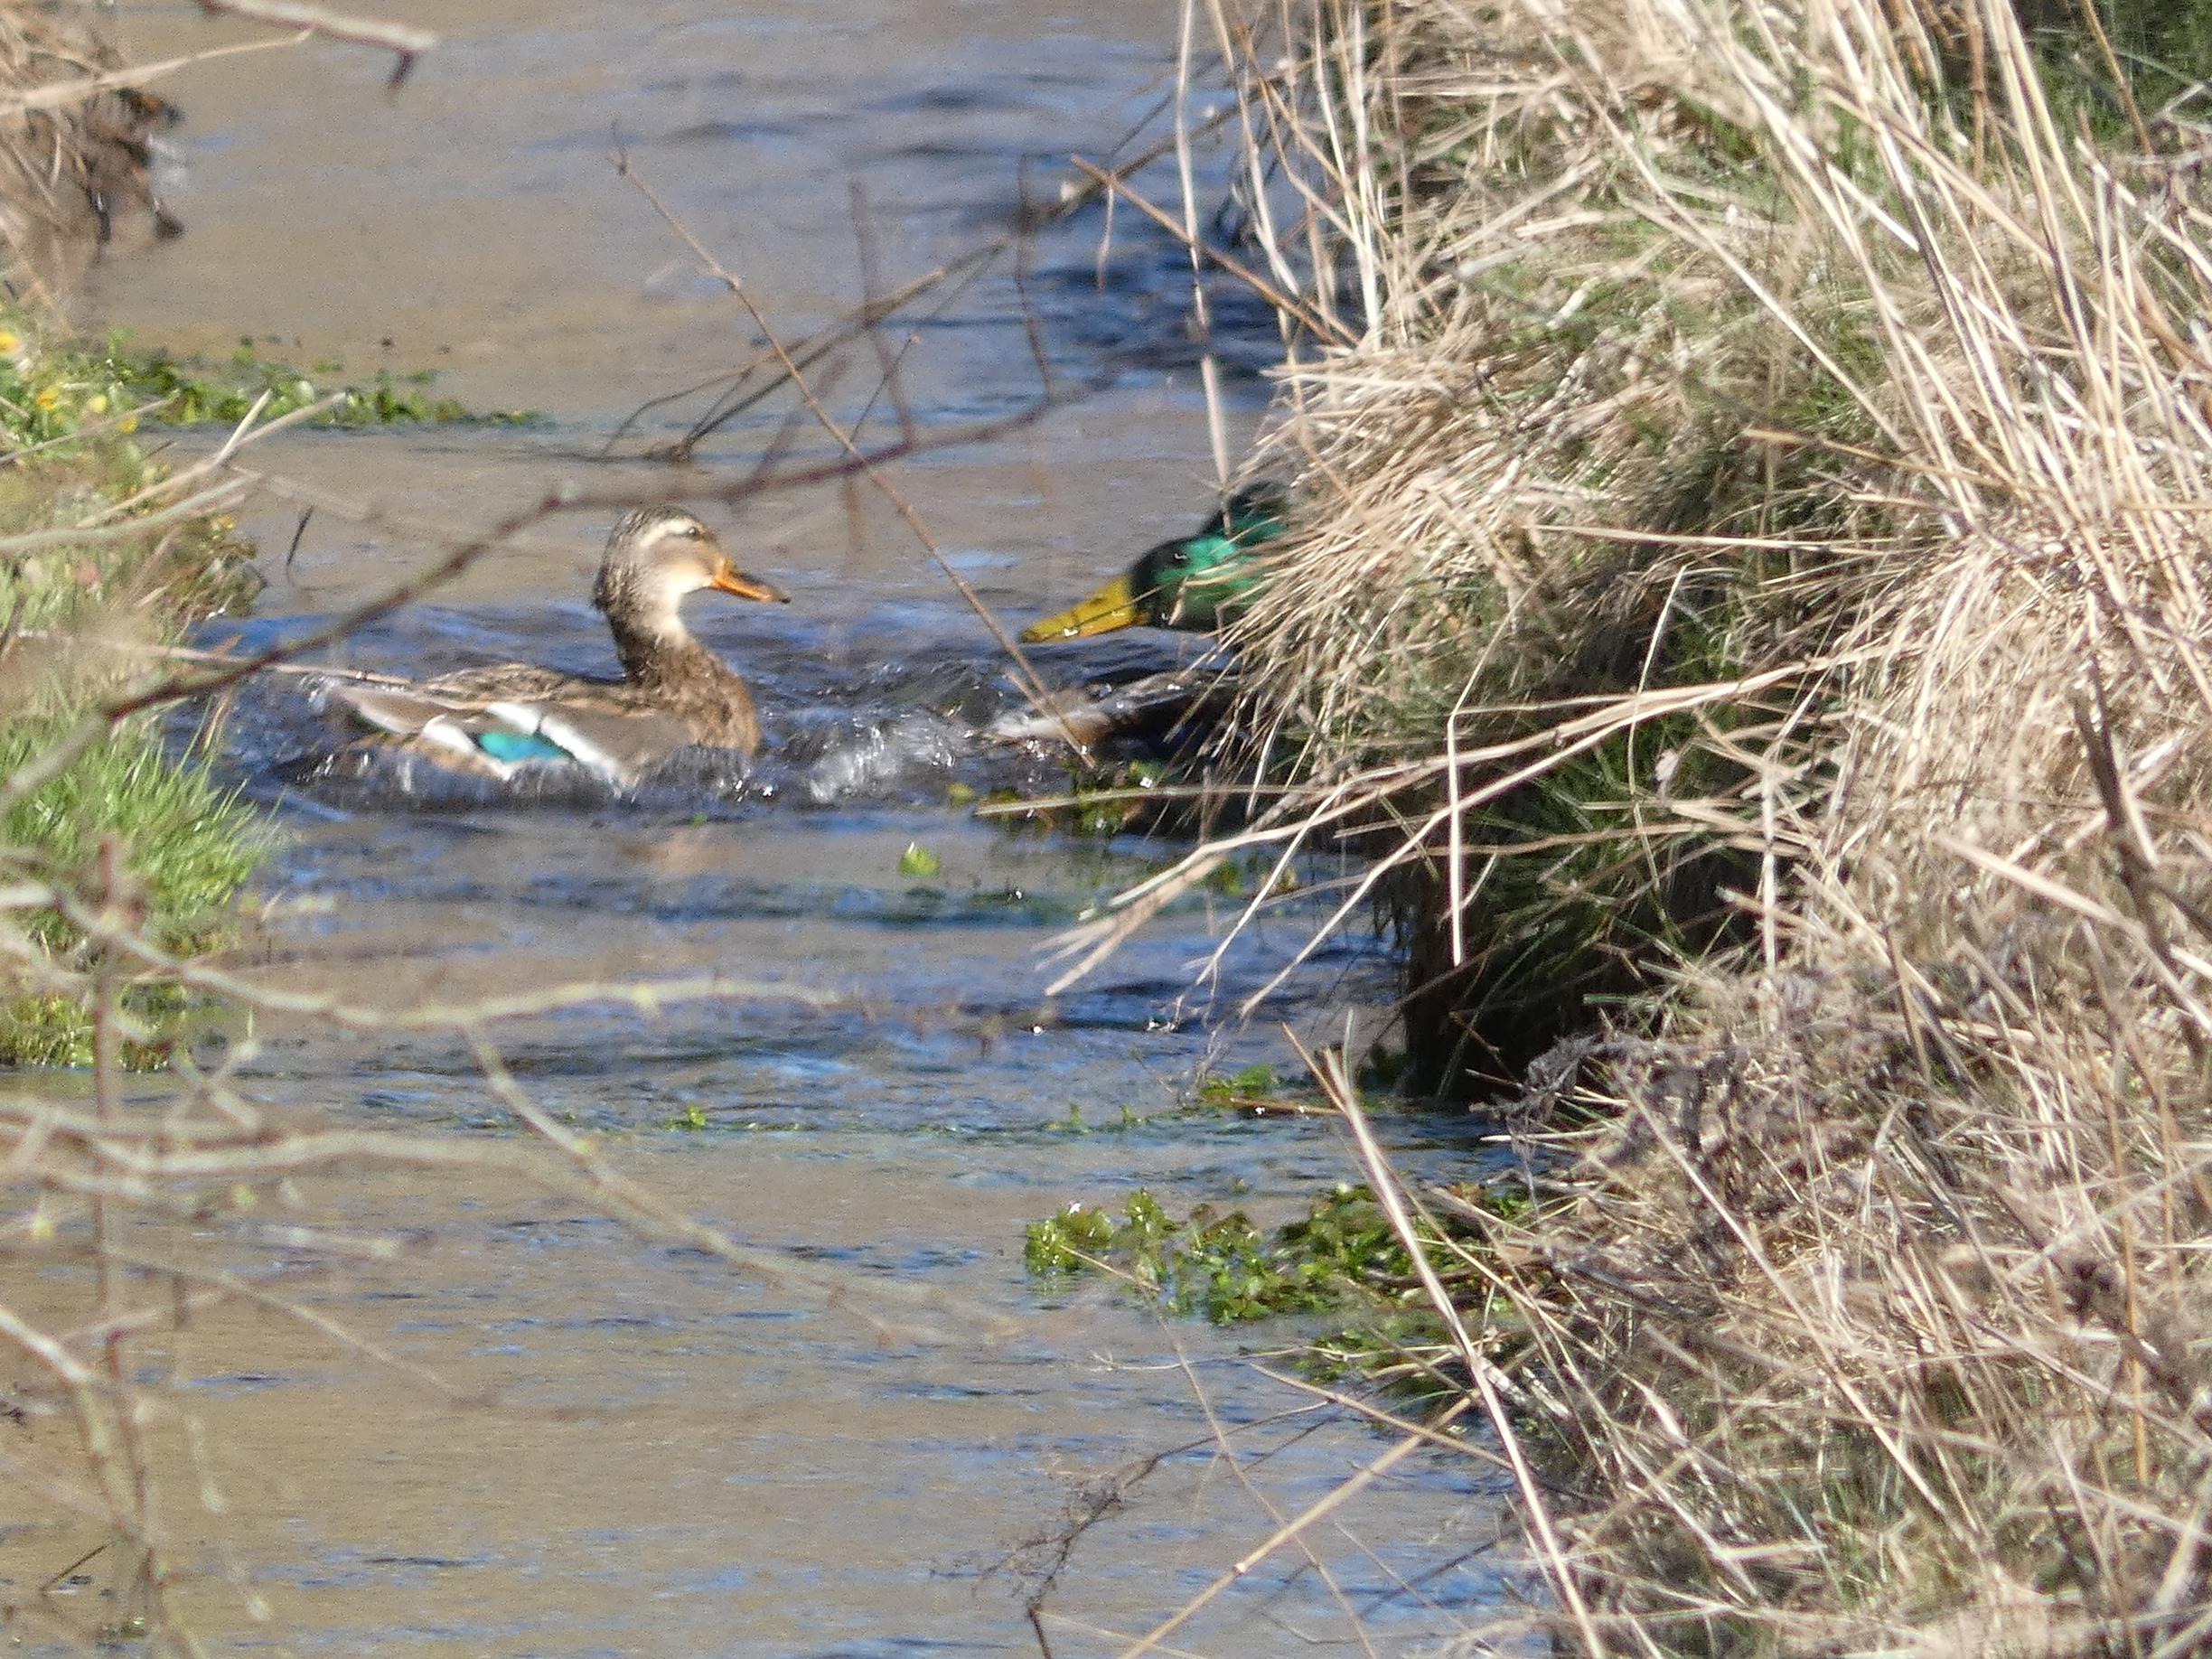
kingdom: Animalia
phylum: Chordata
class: Aves
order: Anseriformes
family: Anatidae
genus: Anas
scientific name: Anas platyrhynchos
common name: Gråand
